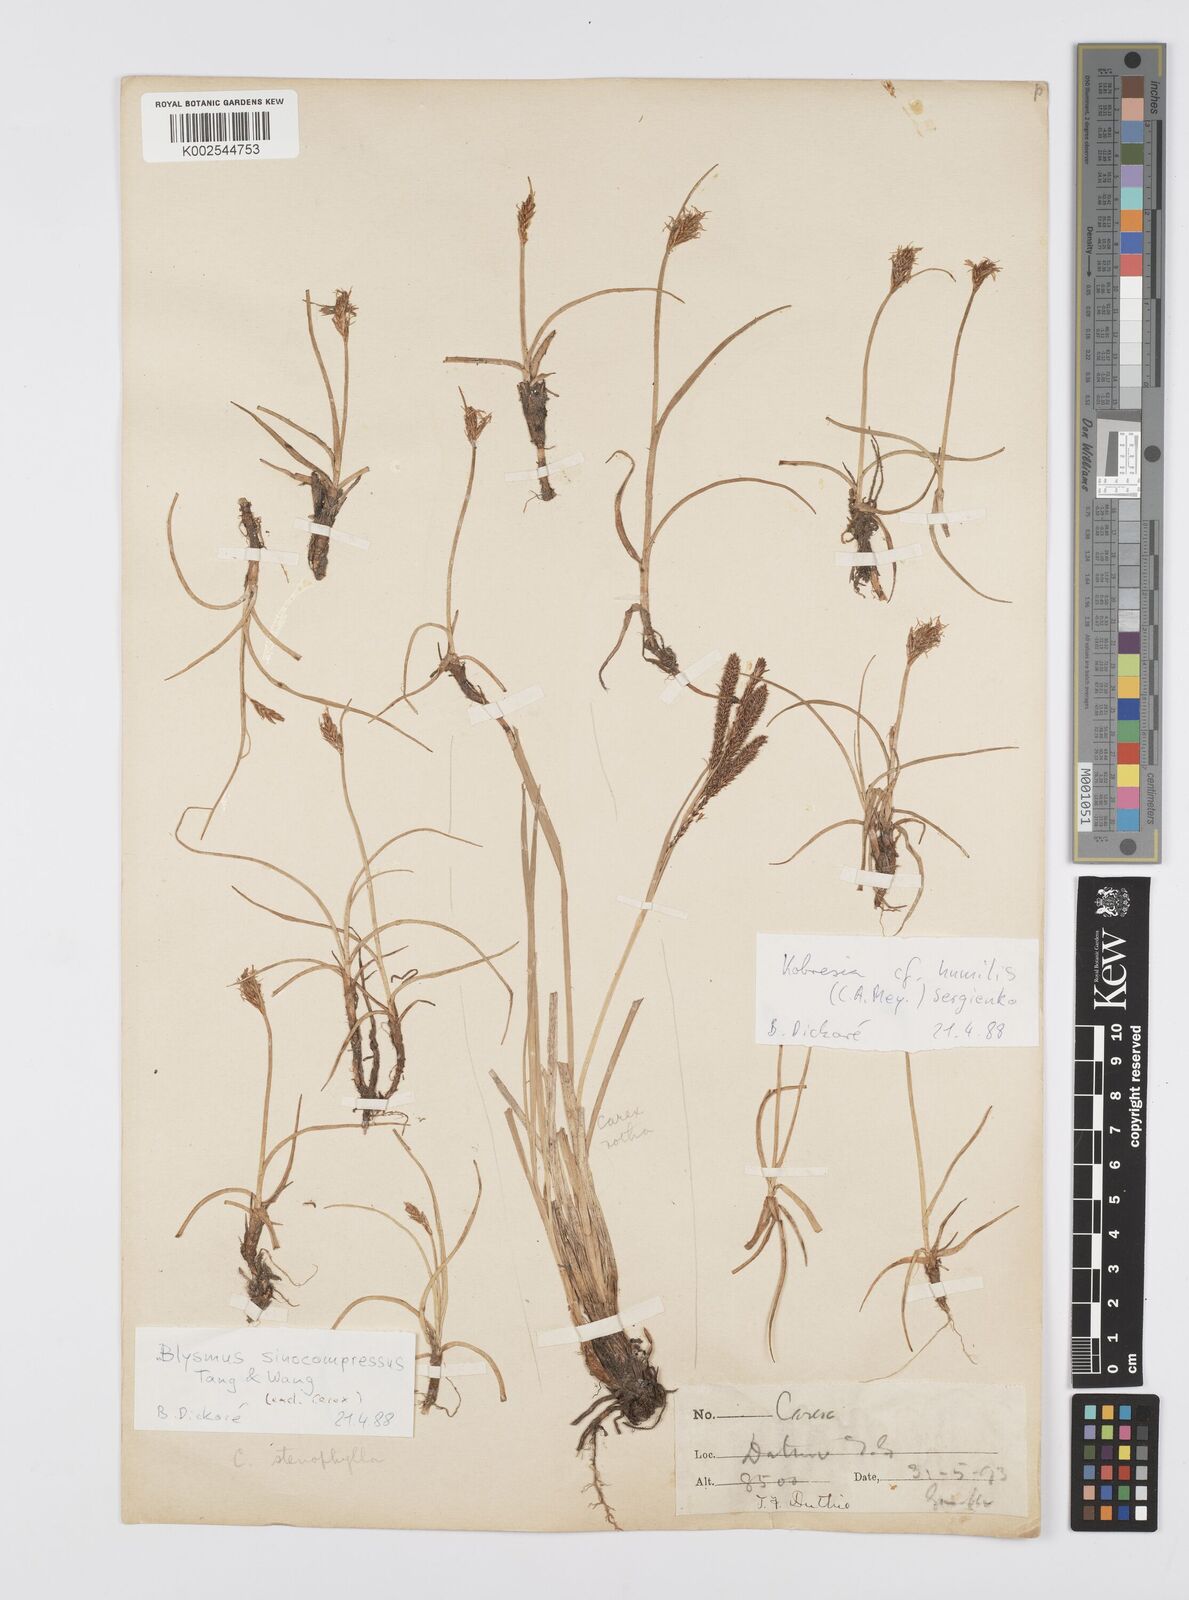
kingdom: Plantae
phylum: Tracheophyta
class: Liliopsida
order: Poales
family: Cyperaceae
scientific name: Cyperaceae
